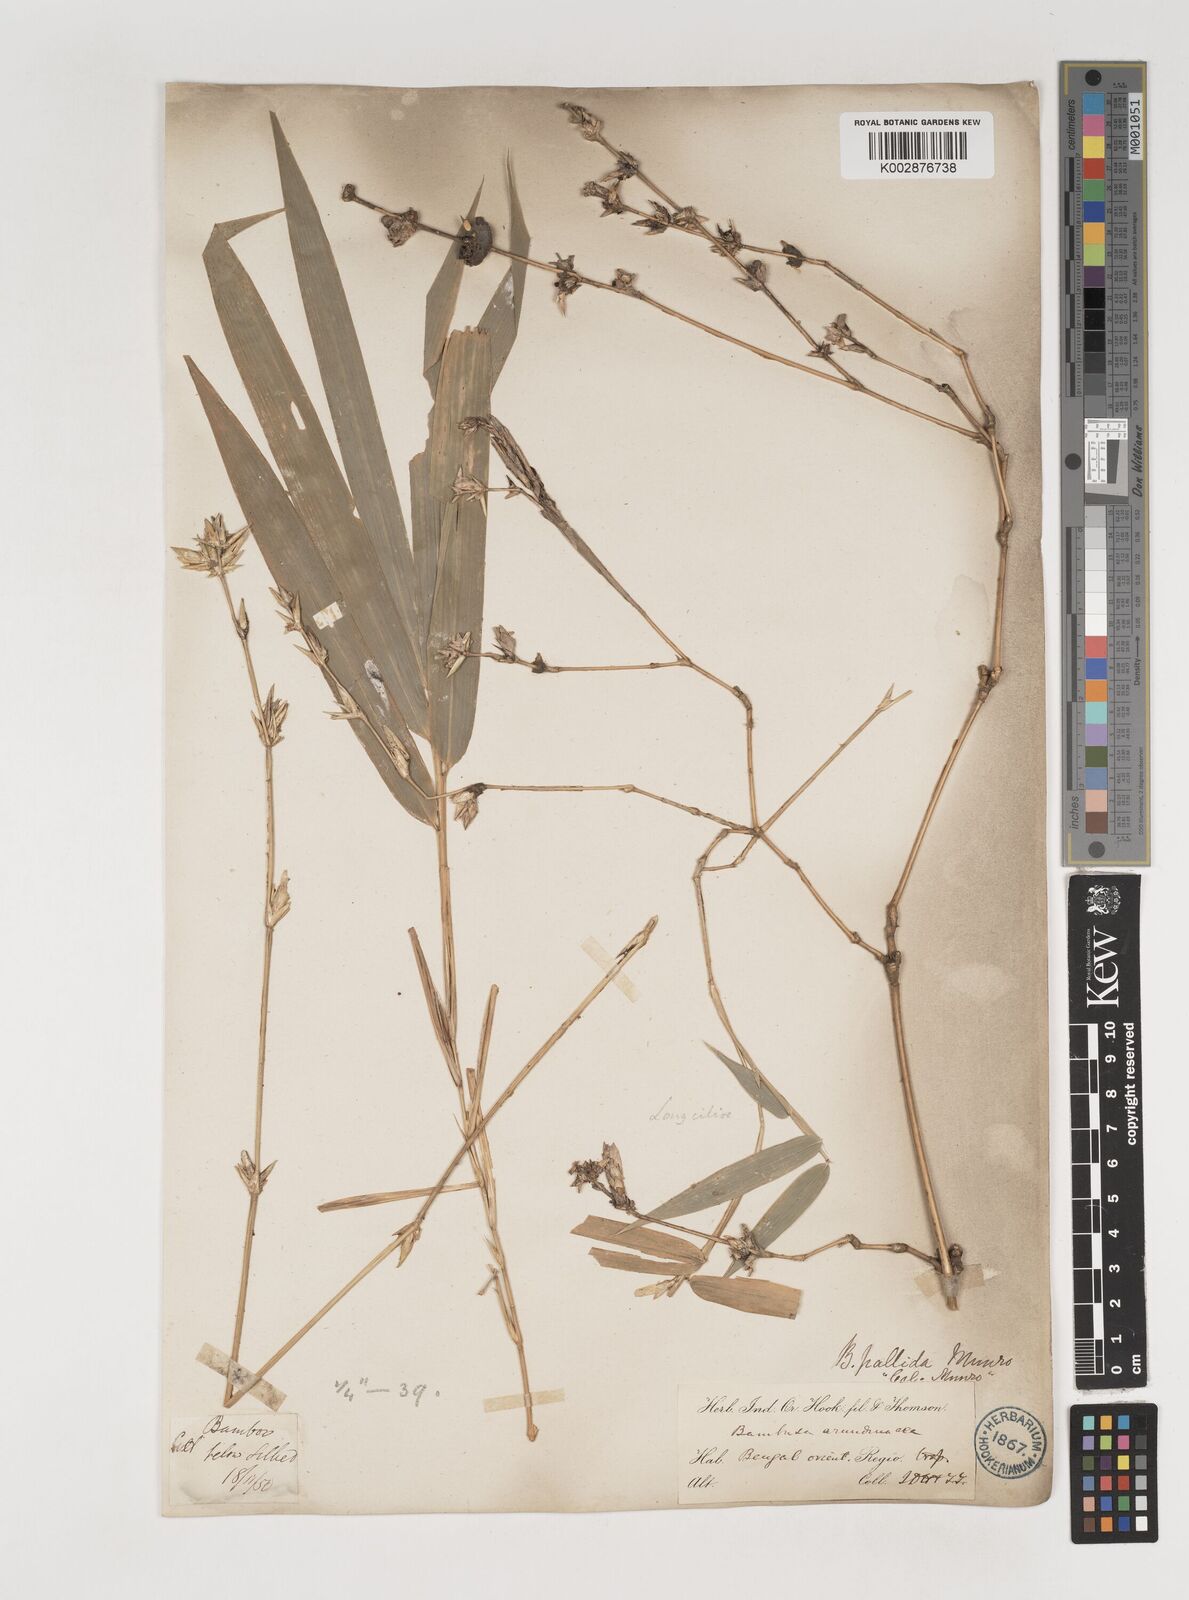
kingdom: Plantae
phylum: Tracheophyta
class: Liliopsida
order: Poales
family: Poaceae
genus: Bambusa
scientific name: Bambusa pallida
